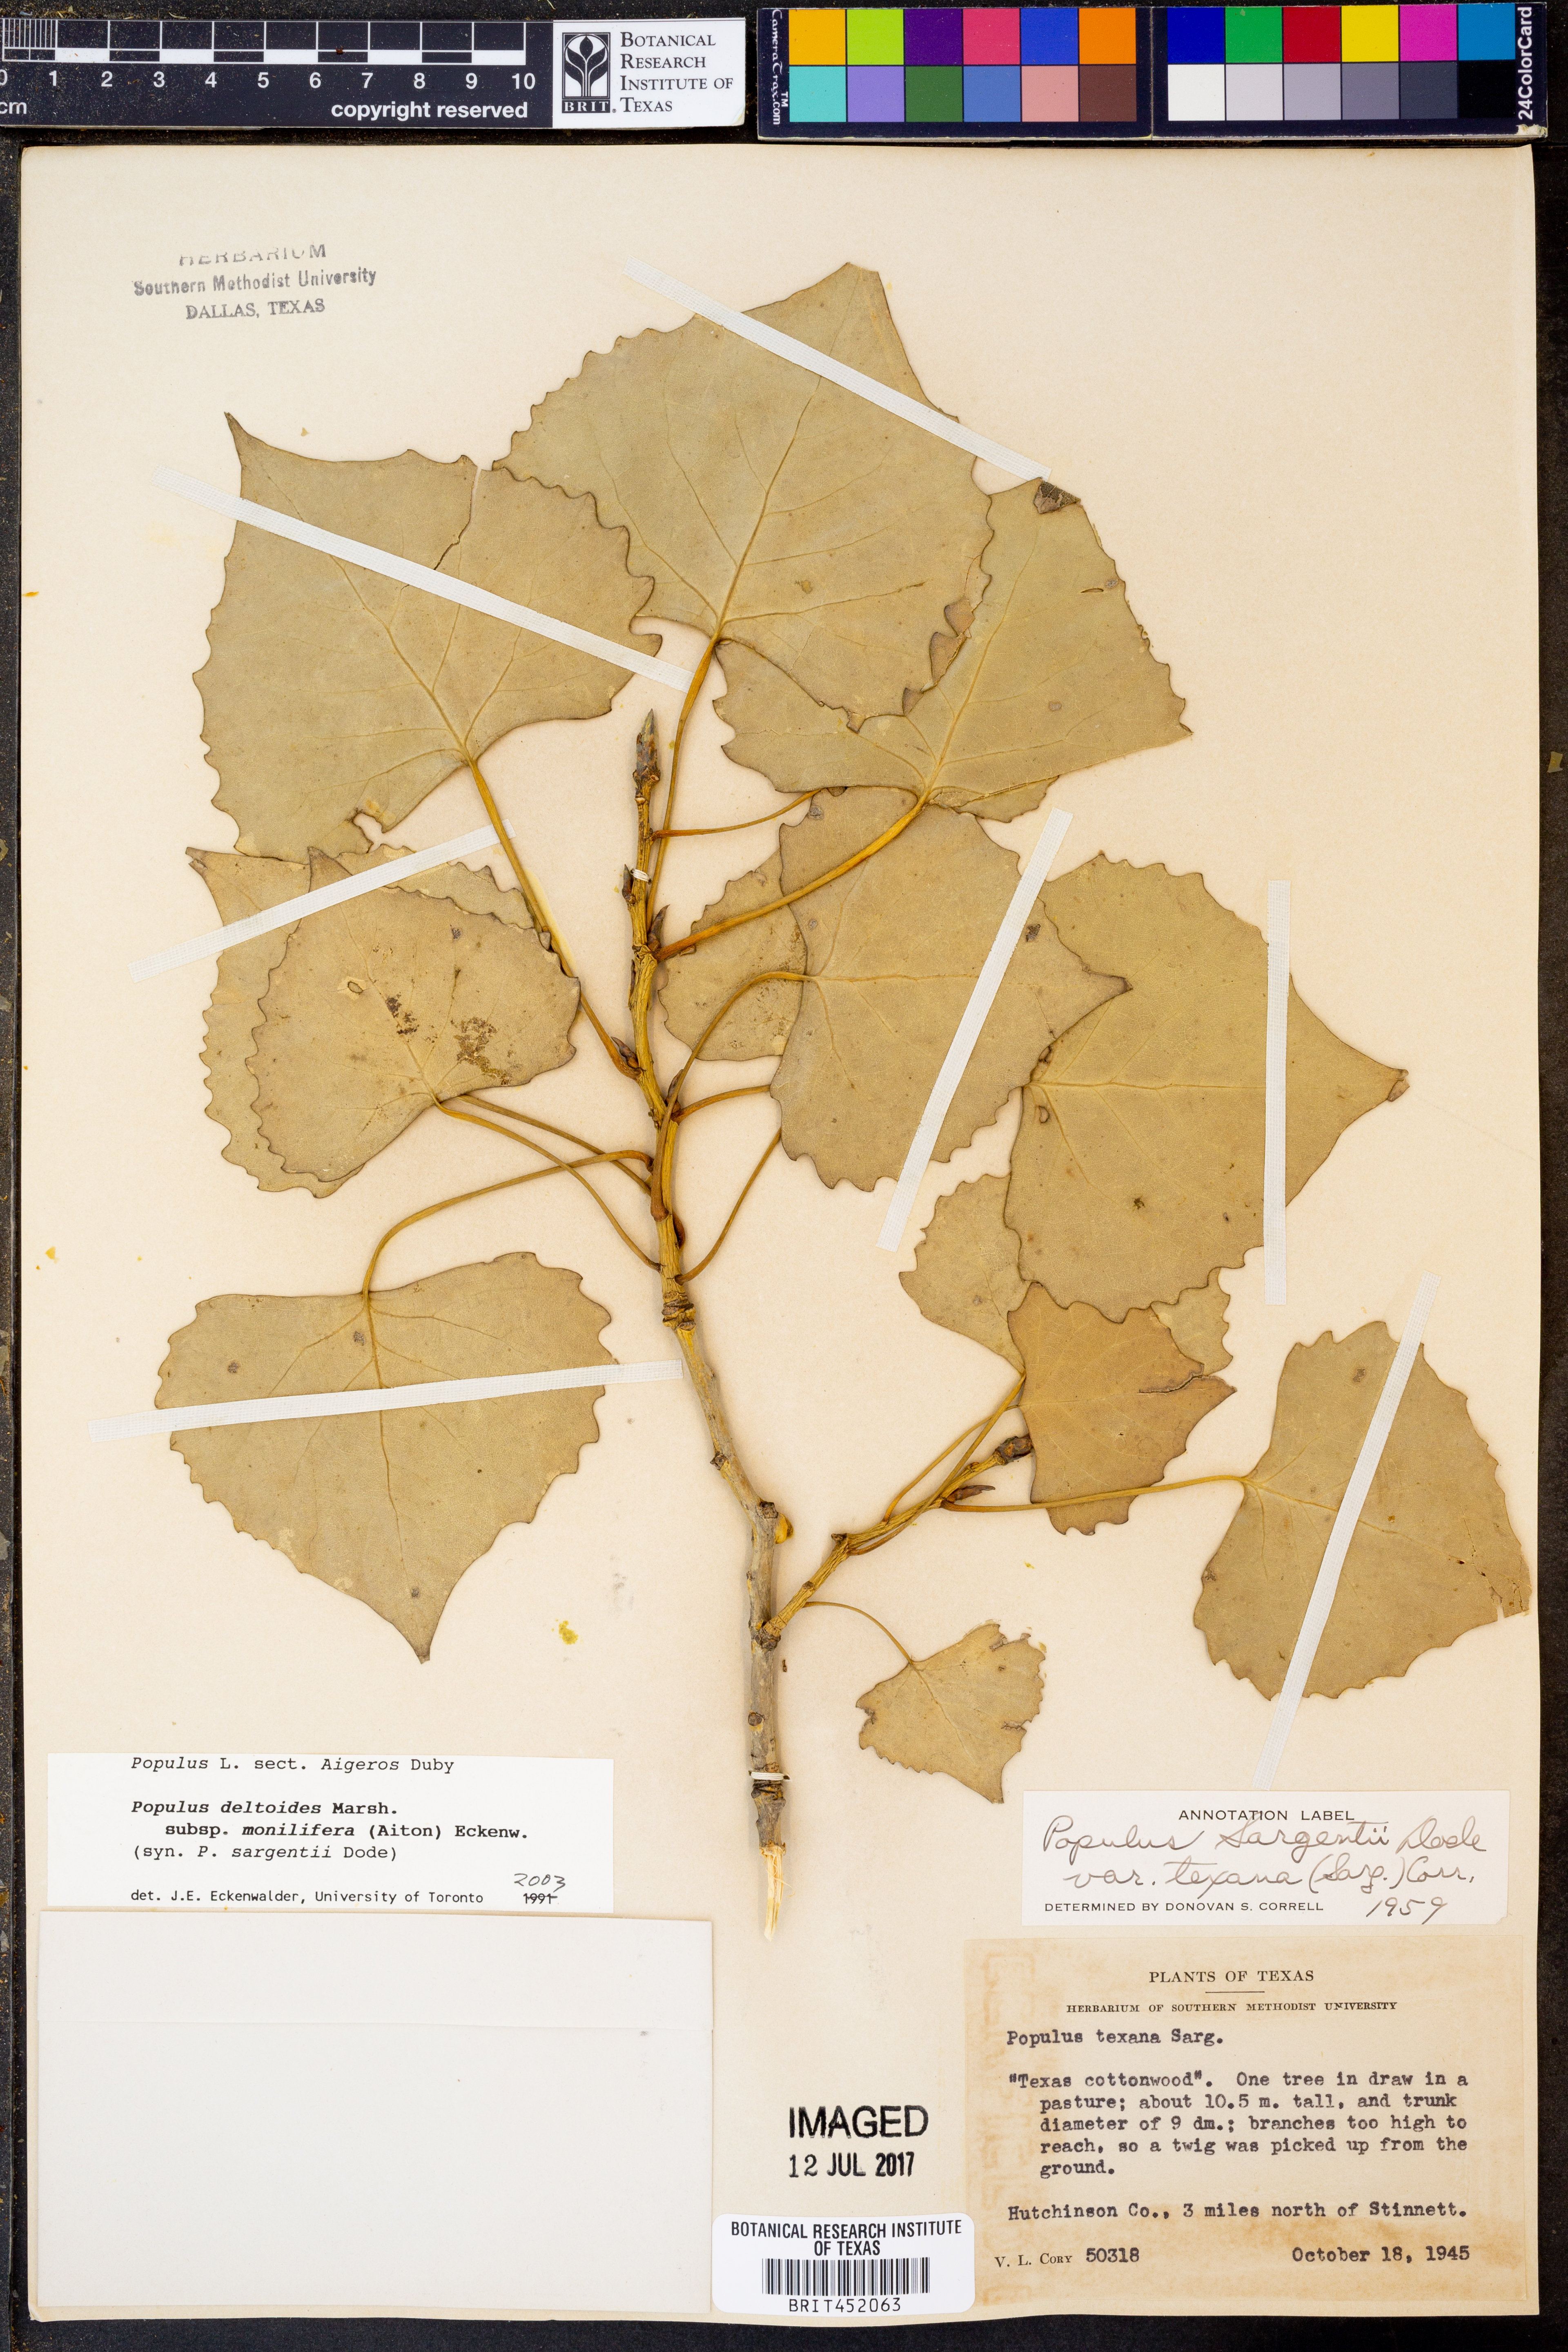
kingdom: Plantae
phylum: Tracheophyta
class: Magnoliopsida
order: Malpighiales
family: Salicaceae
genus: Populus
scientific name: Populus deltoides
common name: Eastern cottonwood
